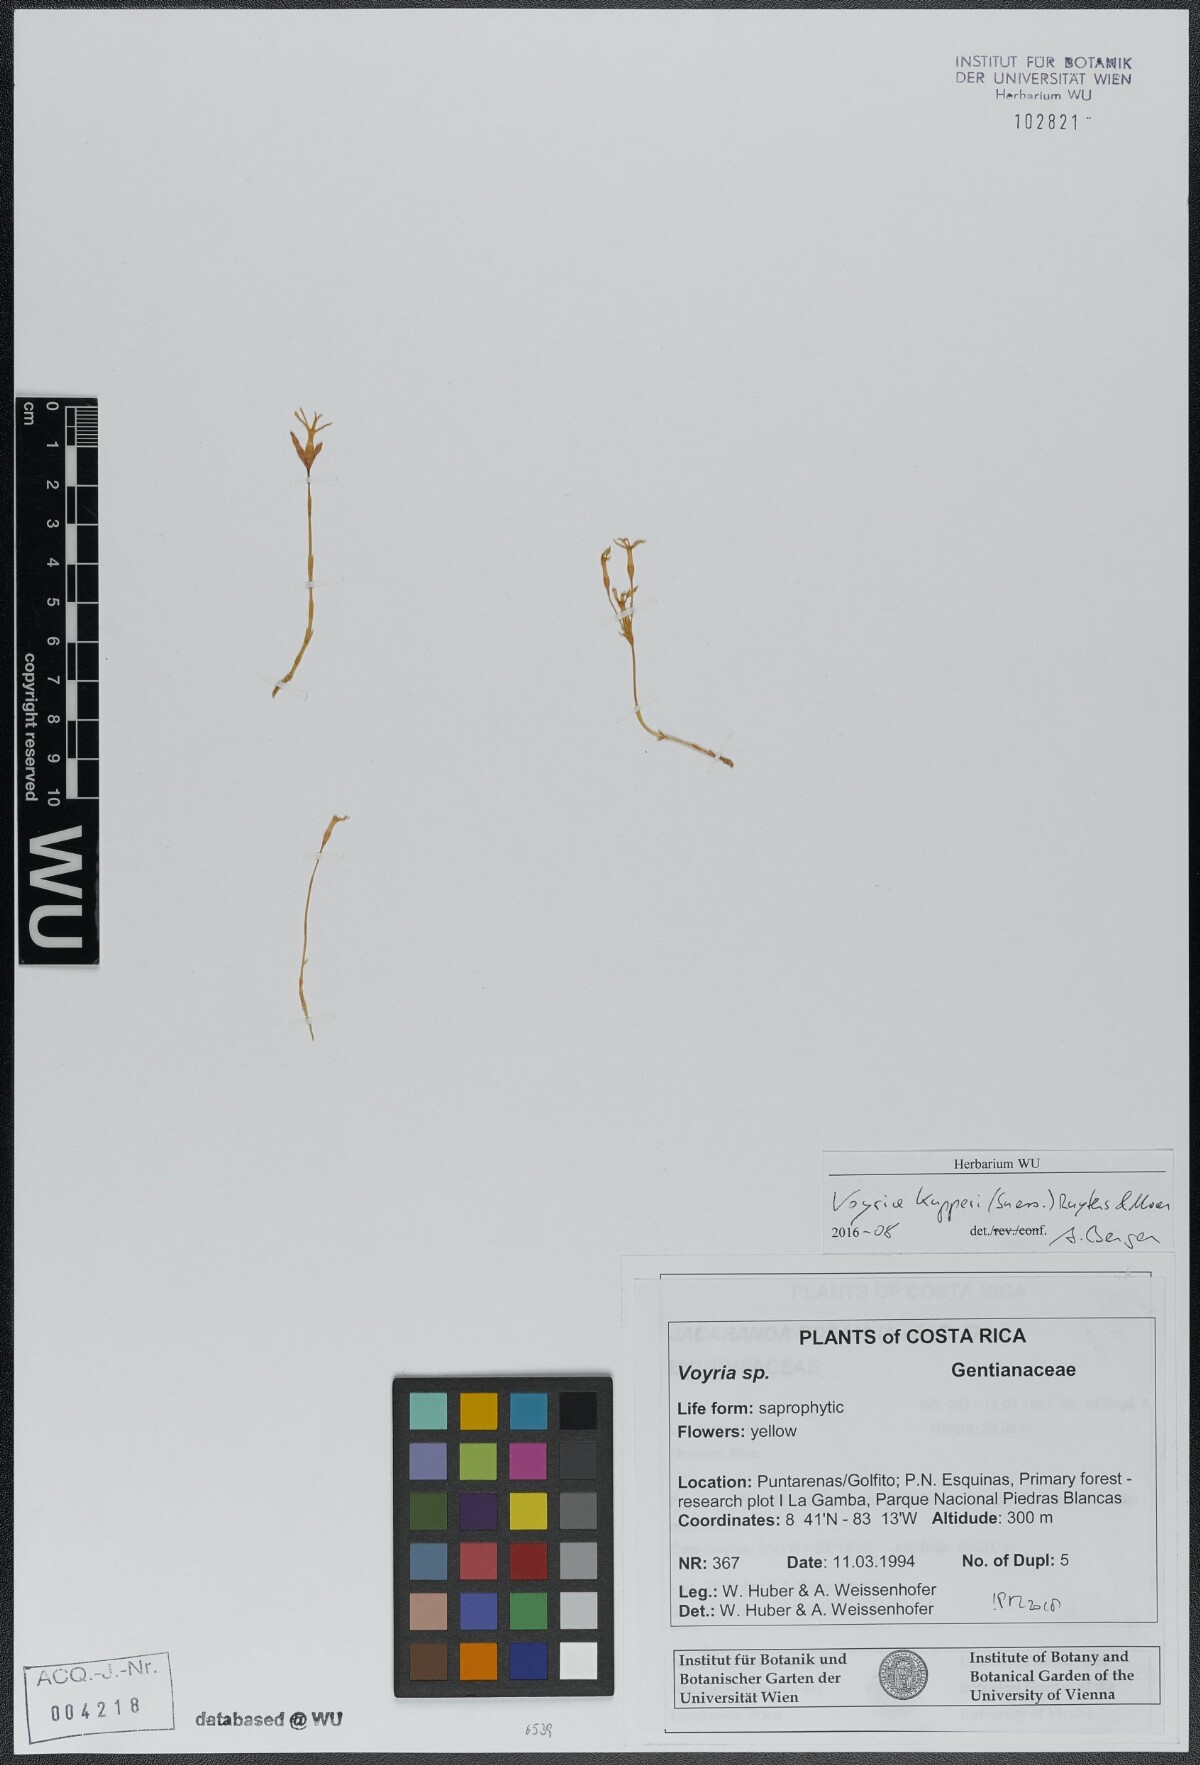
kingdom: Plantae
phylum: Tracheophyta
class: Magnoliopsida
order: Gentianales
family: Gentianaceae
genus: Voyria
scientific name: Voyria kupperi
